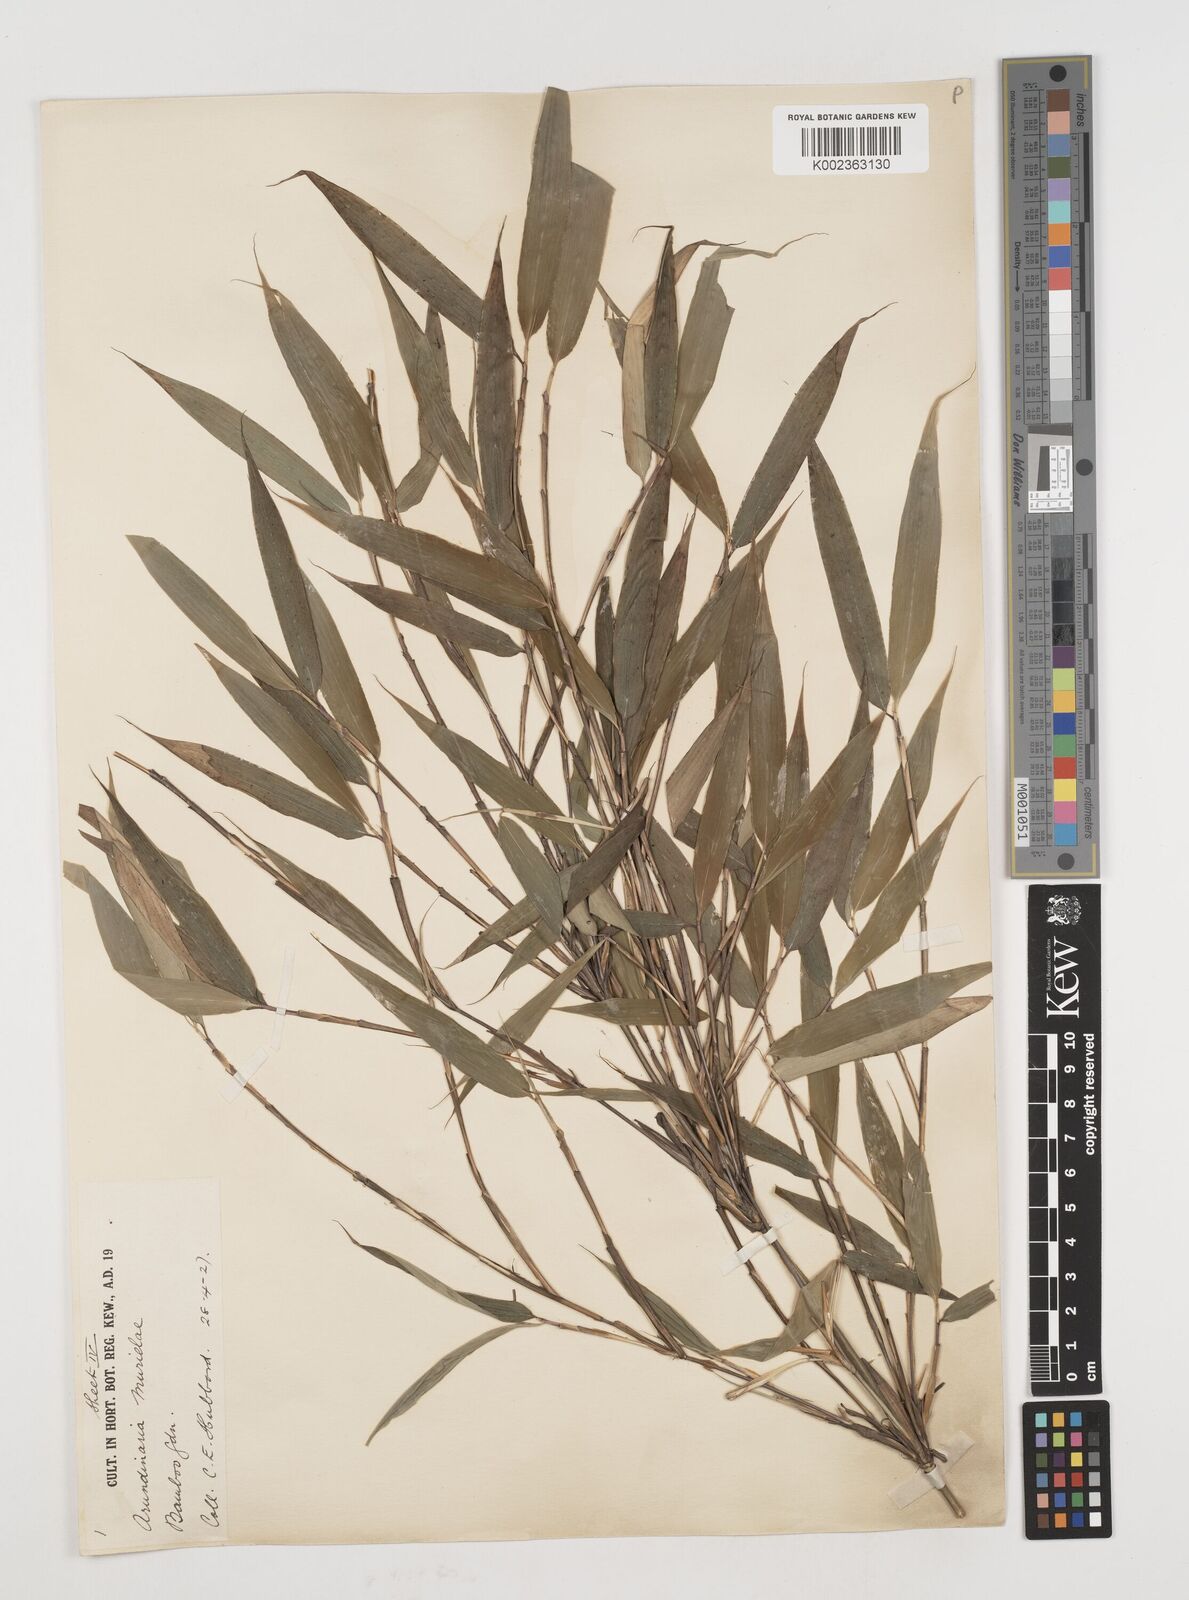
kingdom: Plantae
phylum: Tracheophyta
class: Liliopsida
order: Poales
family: Poaceae
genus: Fargesia
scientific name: Fargesia murielae
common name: Umbrella bamboo
